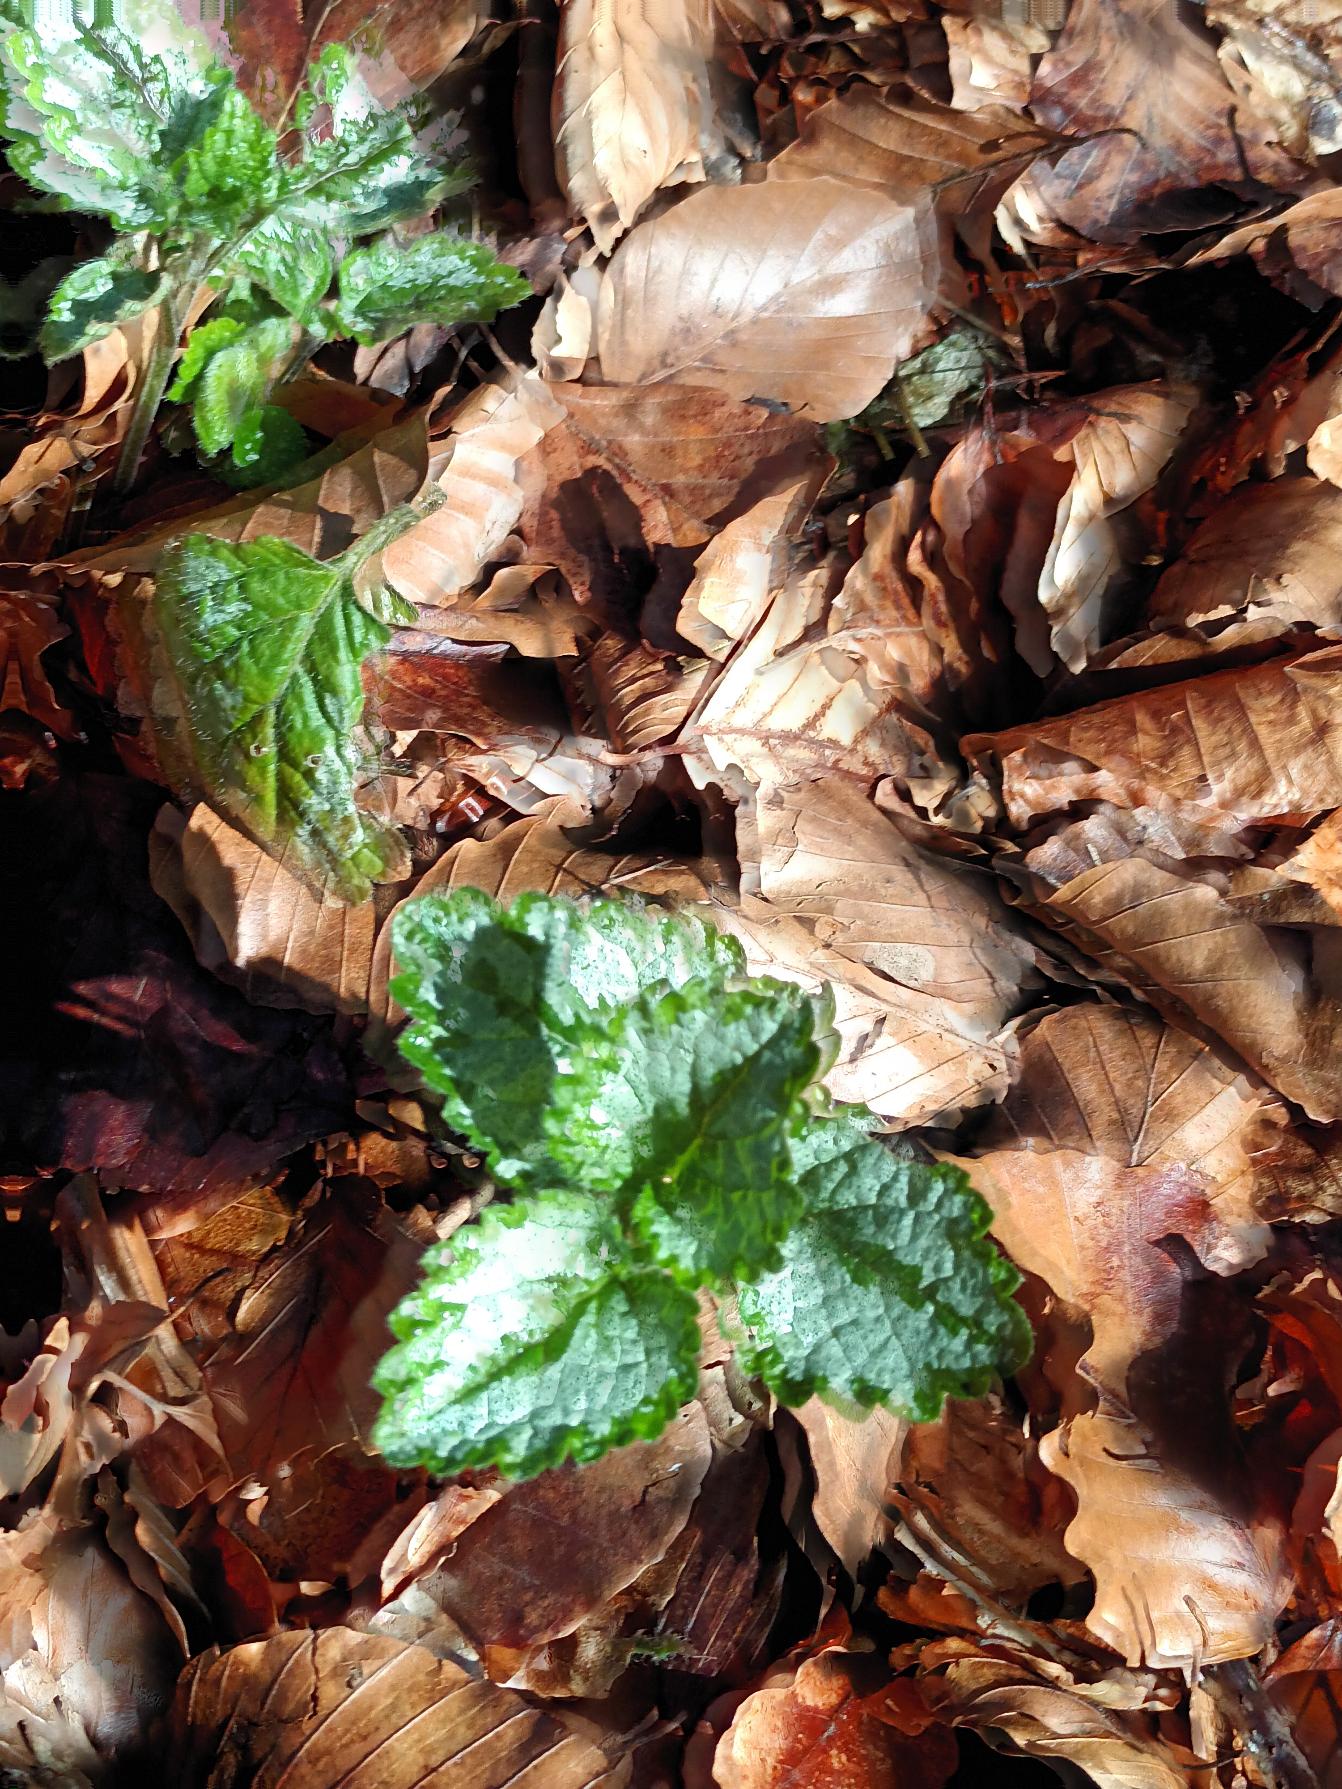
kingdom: Plantae
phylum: Tracheophyta
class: Magnoliopsida
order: Lamiales
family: Lamiaceae
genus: Lamium
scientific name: Lamium galeobdolon
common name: Have-guldnælde
